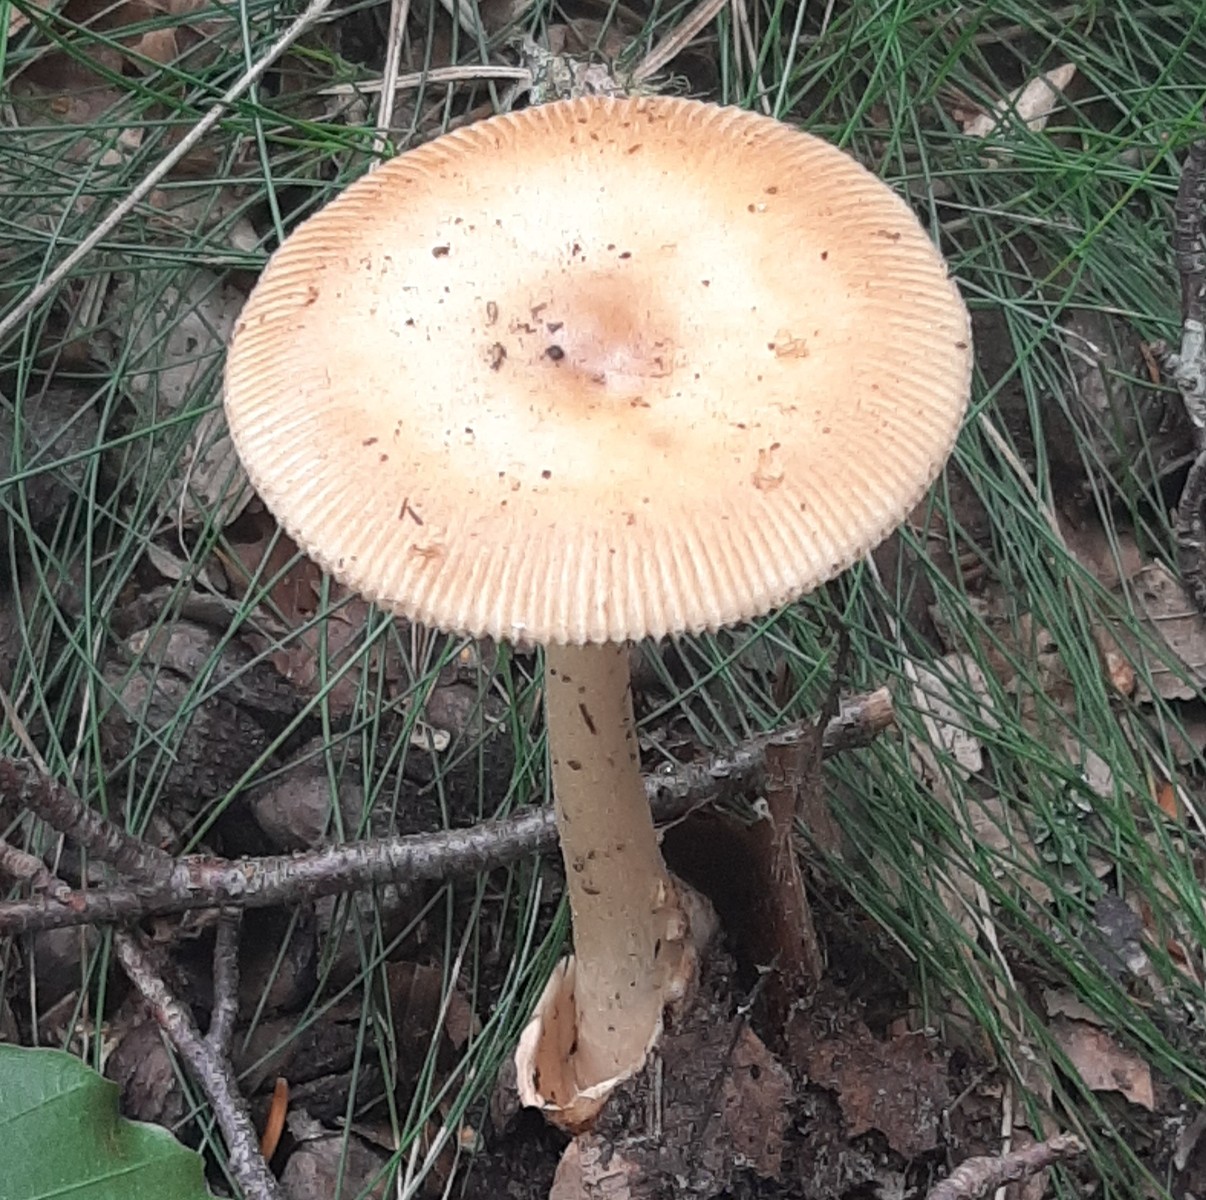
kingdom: Fungi
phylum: Basidiomycota
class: Agaricomycetes
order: Agaricales
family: Amanitaceae
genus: Amanita
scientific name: Amanita fulva
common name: brun kam-fluesvamp
